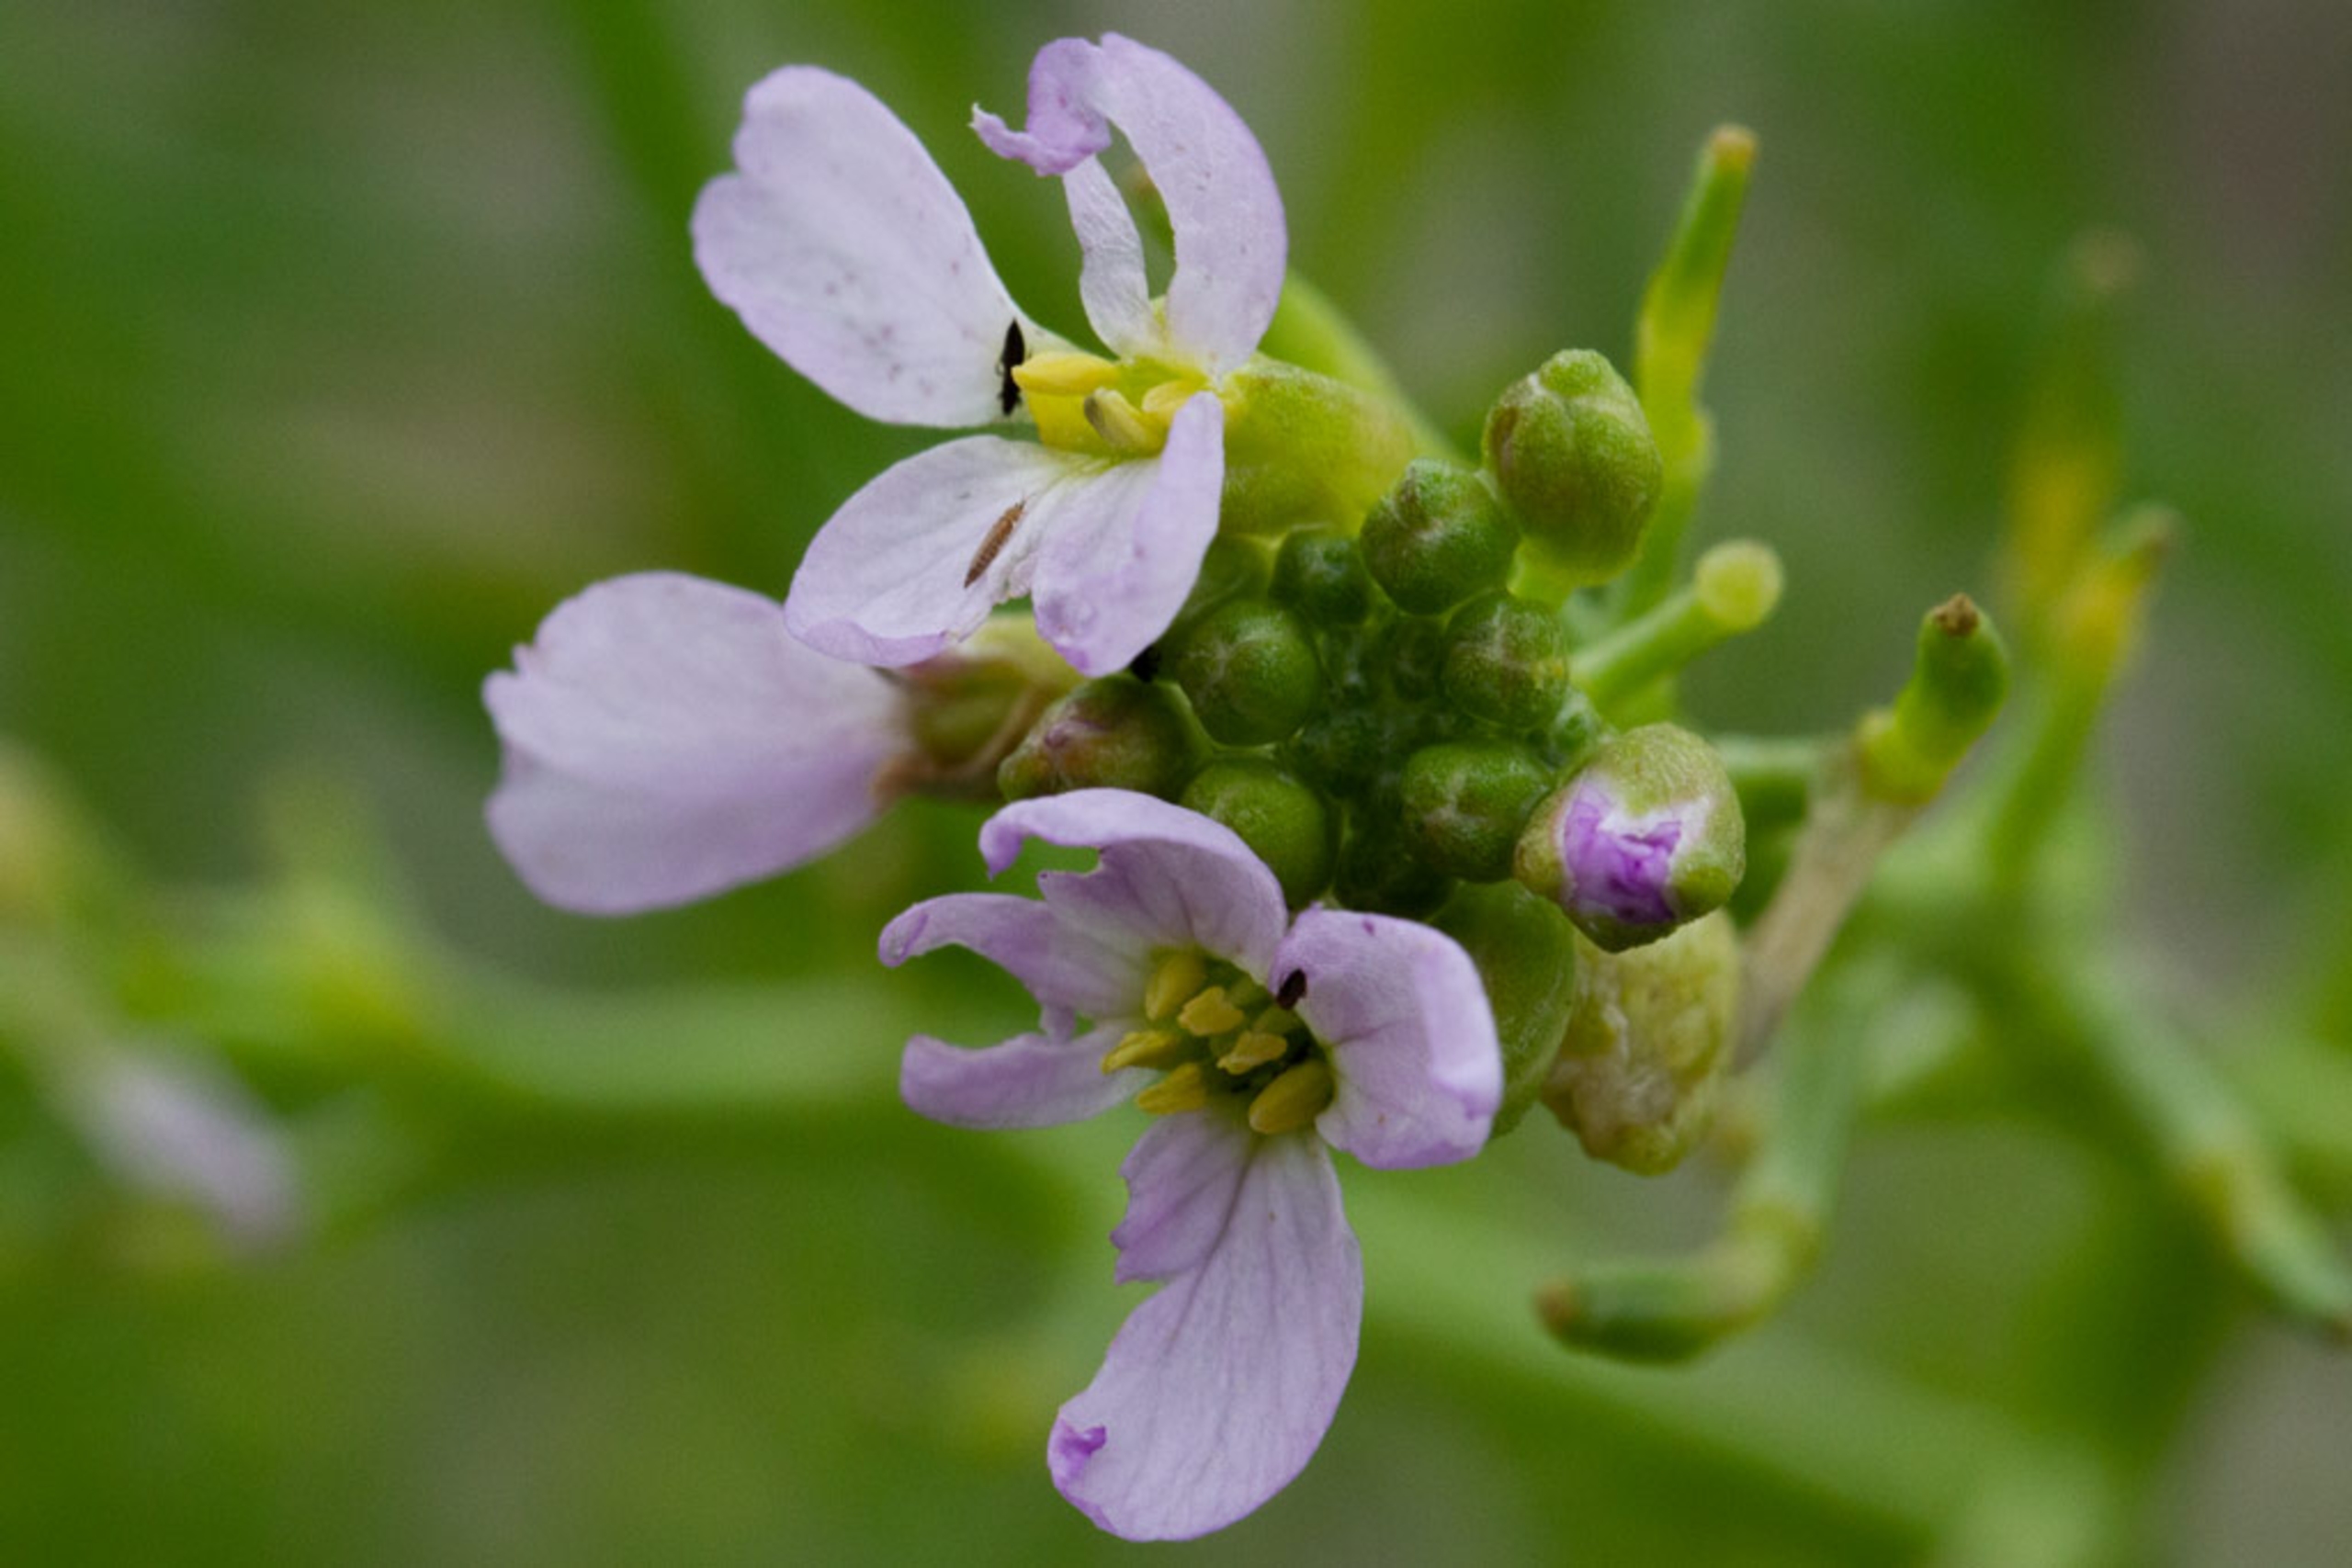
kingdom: Plantae
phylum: Tracheophyta
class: Magnoliopsida
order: Brassicales
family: Brassicaceae
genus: Cakile
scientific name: Cakile maritima
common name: Østersø-strandsennep
